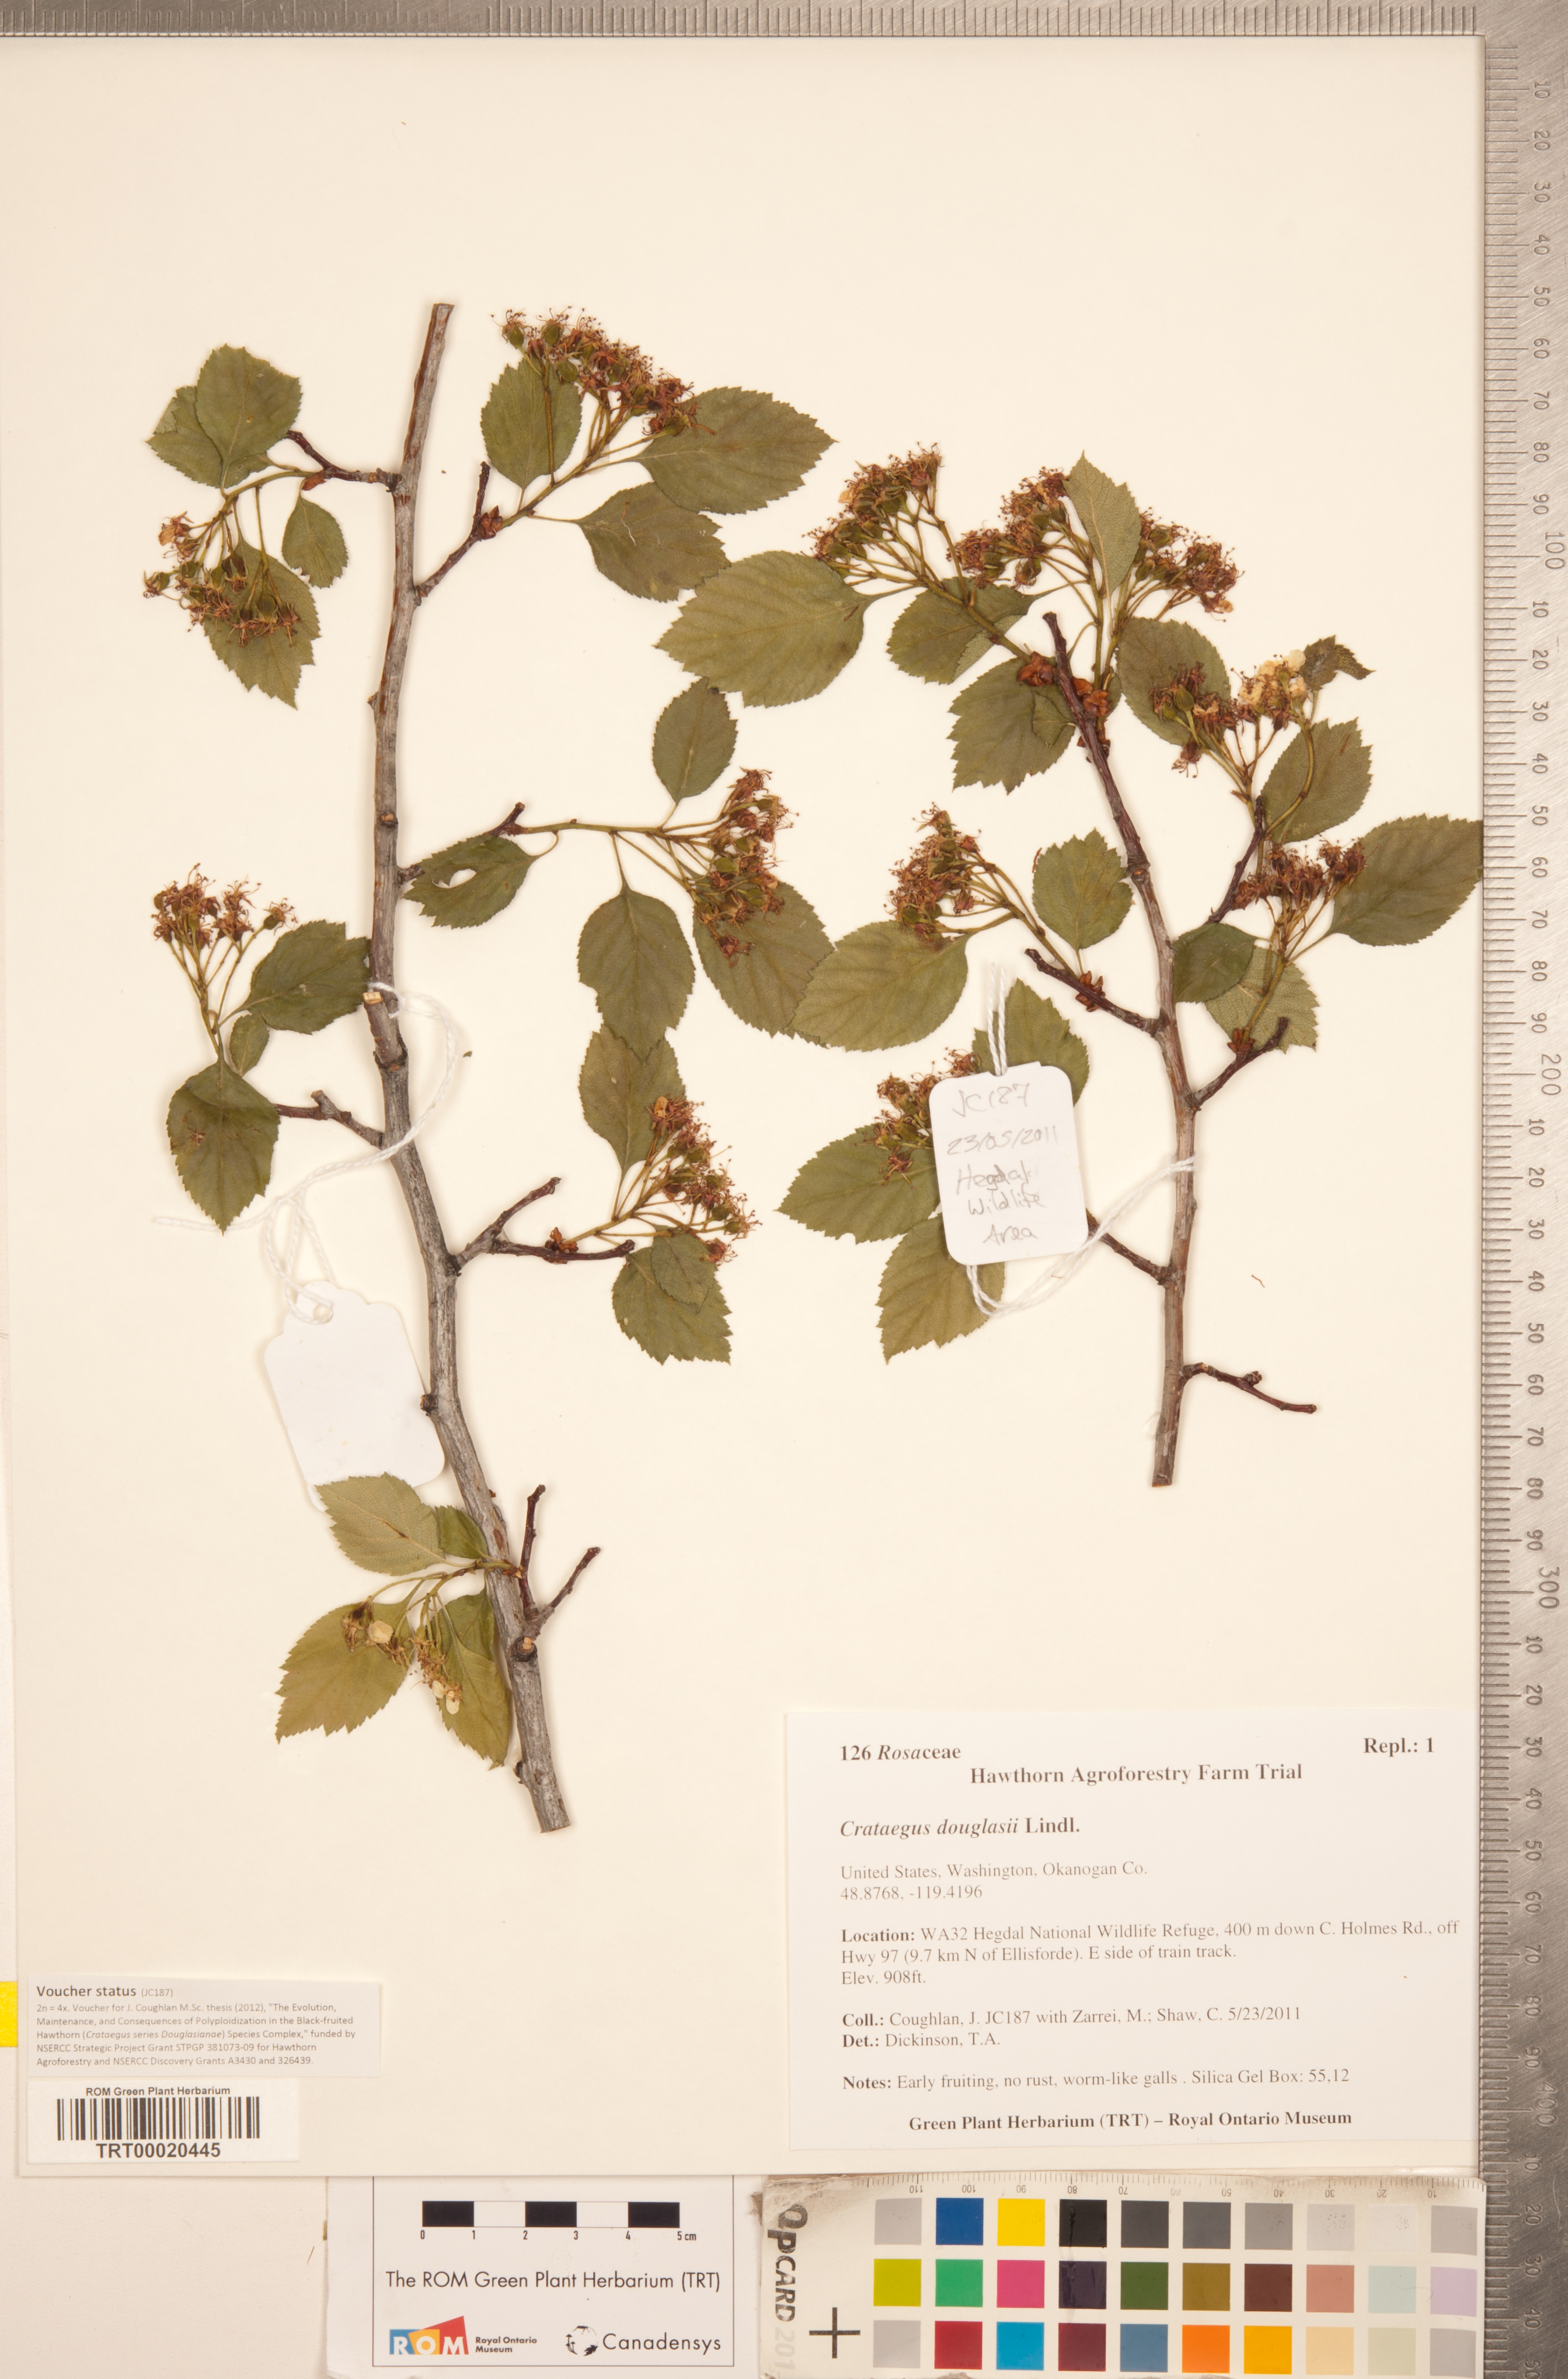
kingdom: Plantae
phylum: Tracheophyta
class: Magnoliopsida
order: Rosales
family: Rosaceae
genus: Crataegus
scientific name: Crataegus macracantha
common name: Large-thorn hawthorn
